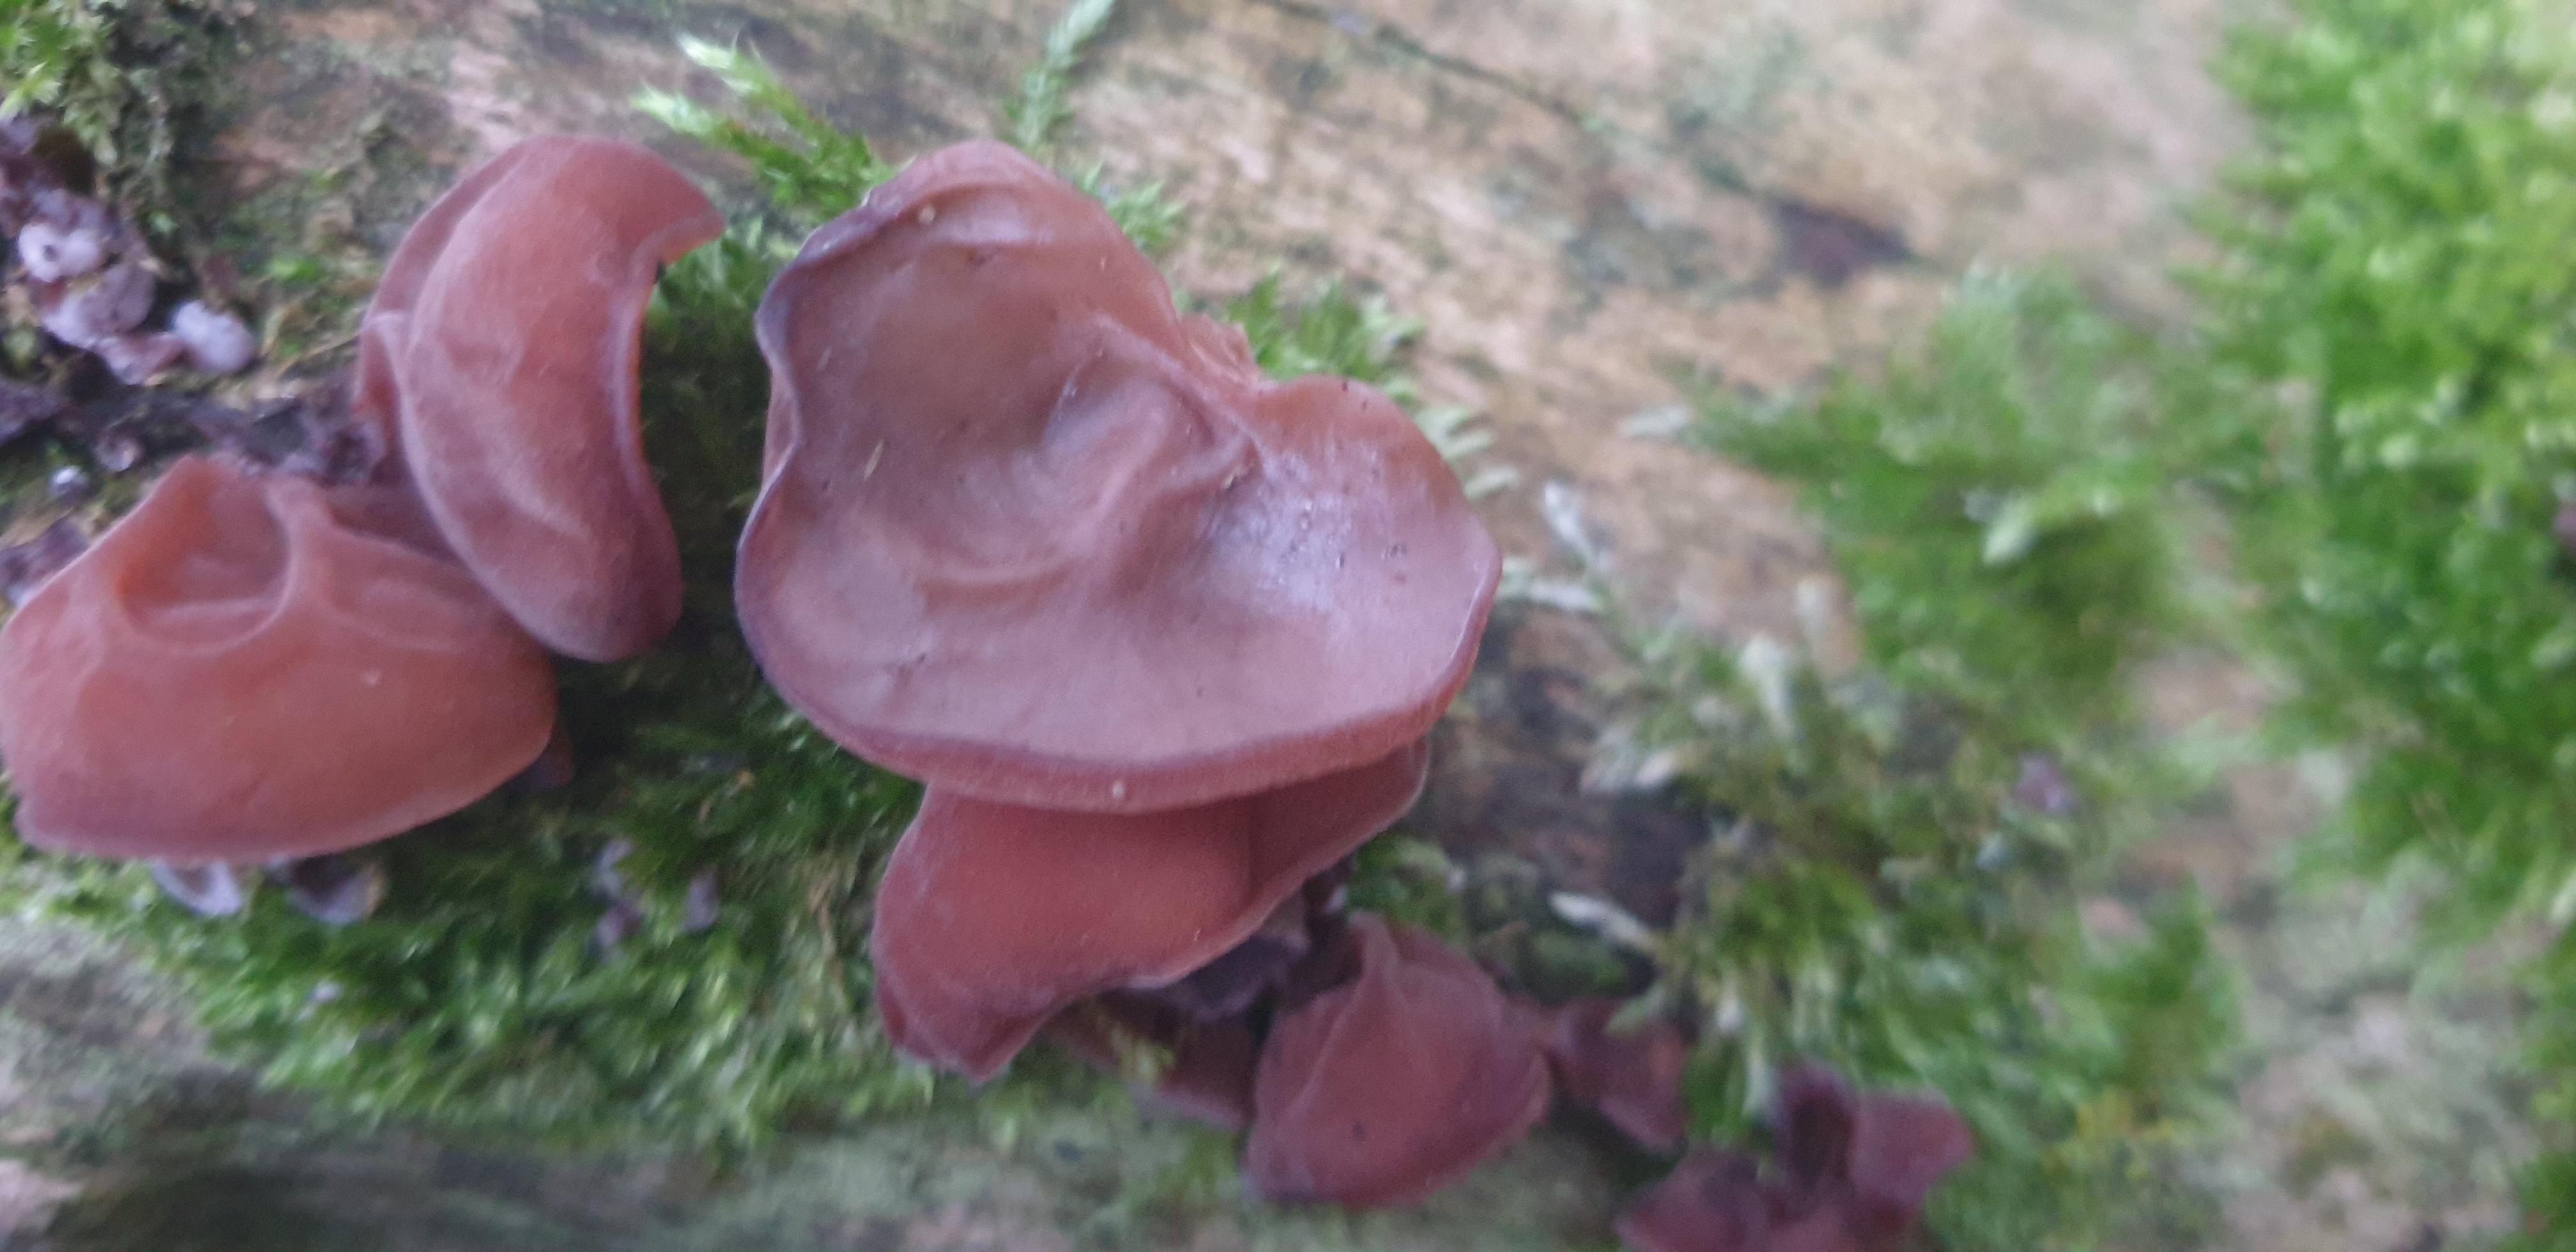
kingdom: Fungi
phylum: Basidiomycota
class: Agaricomycetes
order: Auriculariales
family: Auriculariaceae
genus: Auricularia
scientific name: Auricularia auricula-judae
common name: almindelig judasøre
